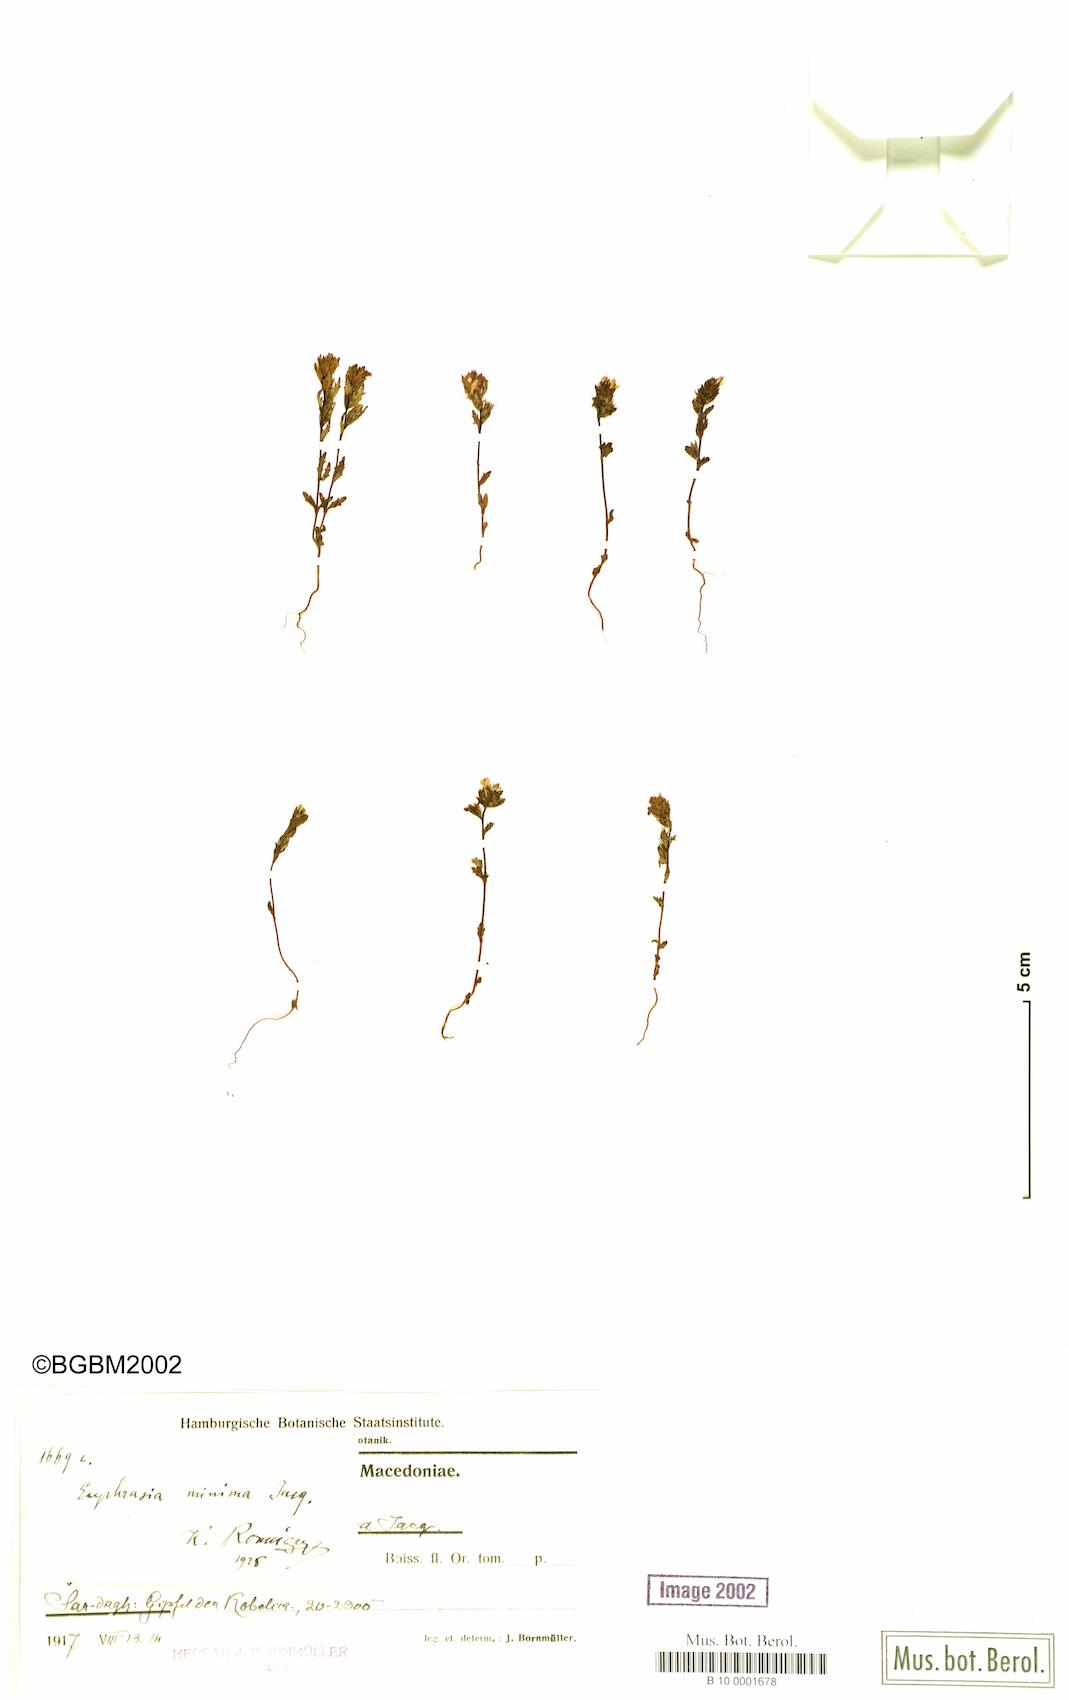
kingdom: Plantae
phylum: Tracheophyta
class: Magnoliopsida
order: Lamiales
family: Orobanchaceae
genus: Euphrasia
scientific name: Euphrasia minima
